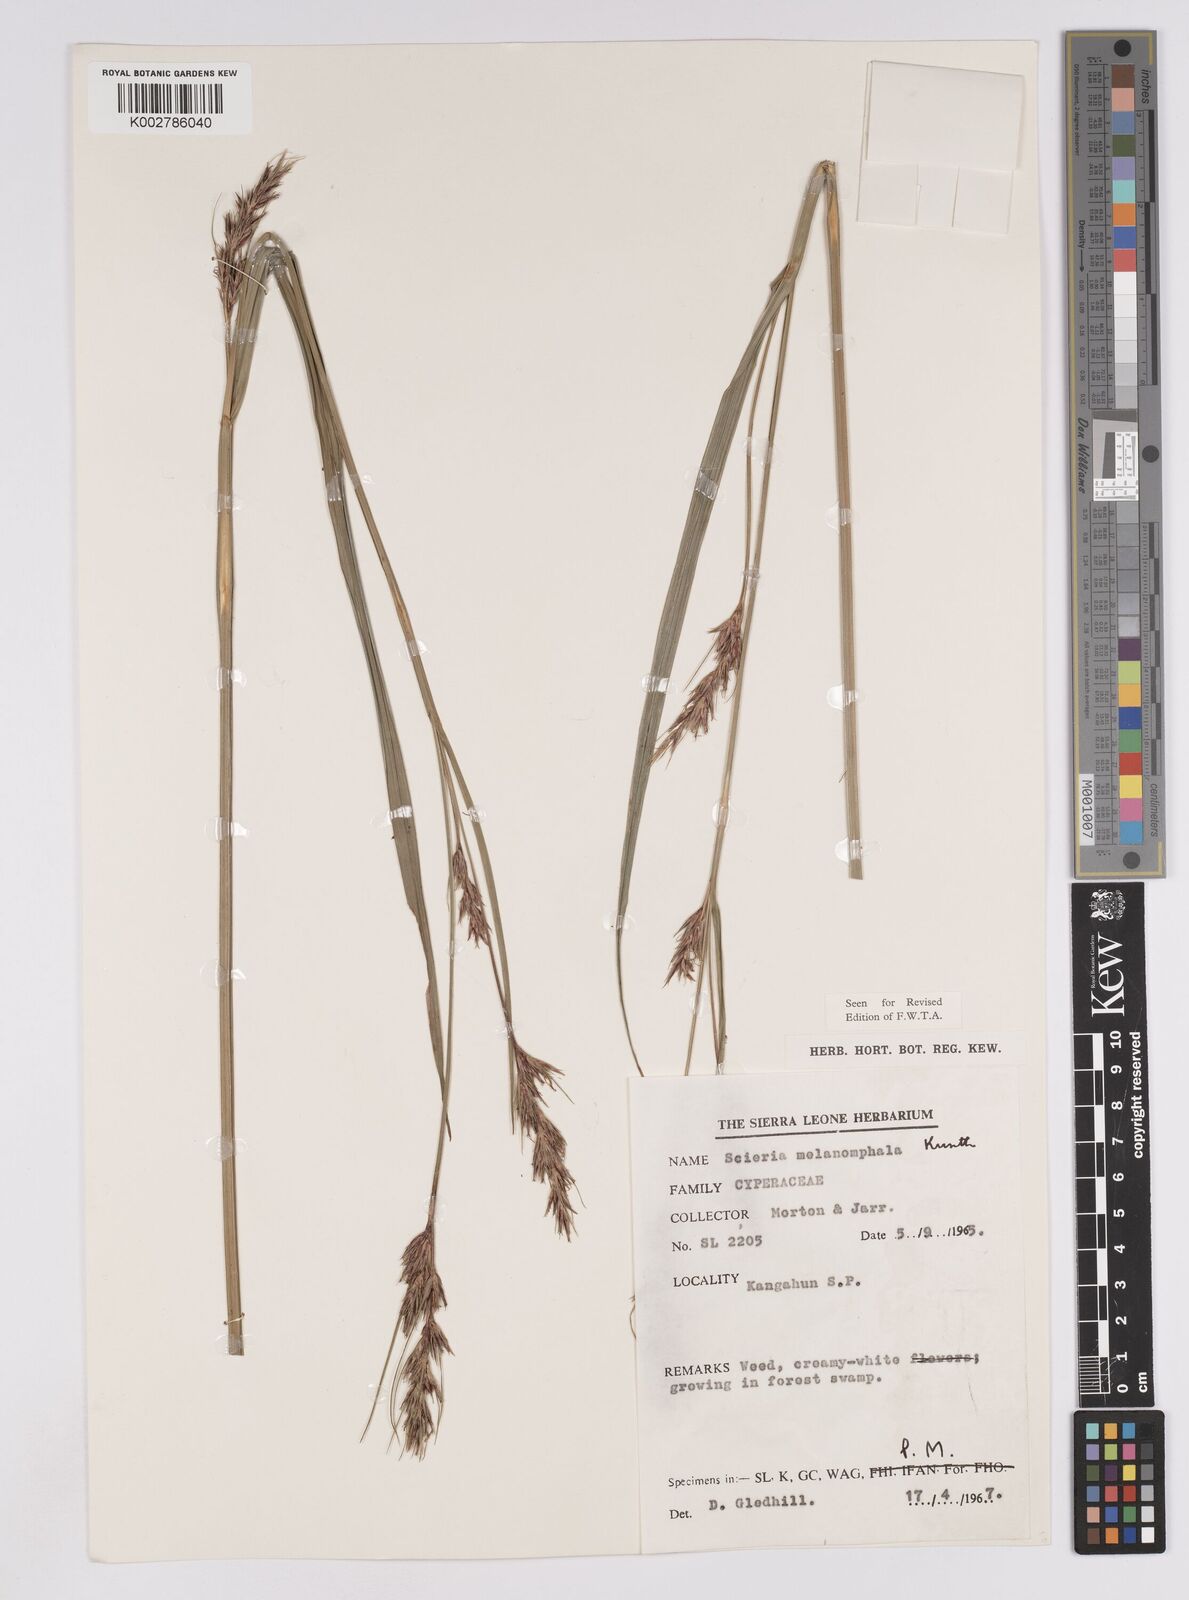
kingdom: Plantae
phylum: Tracheophyta
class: Liliopsida
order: Poales
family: Cyperaceae
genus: Scleria
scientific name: Scleria melanomphala
